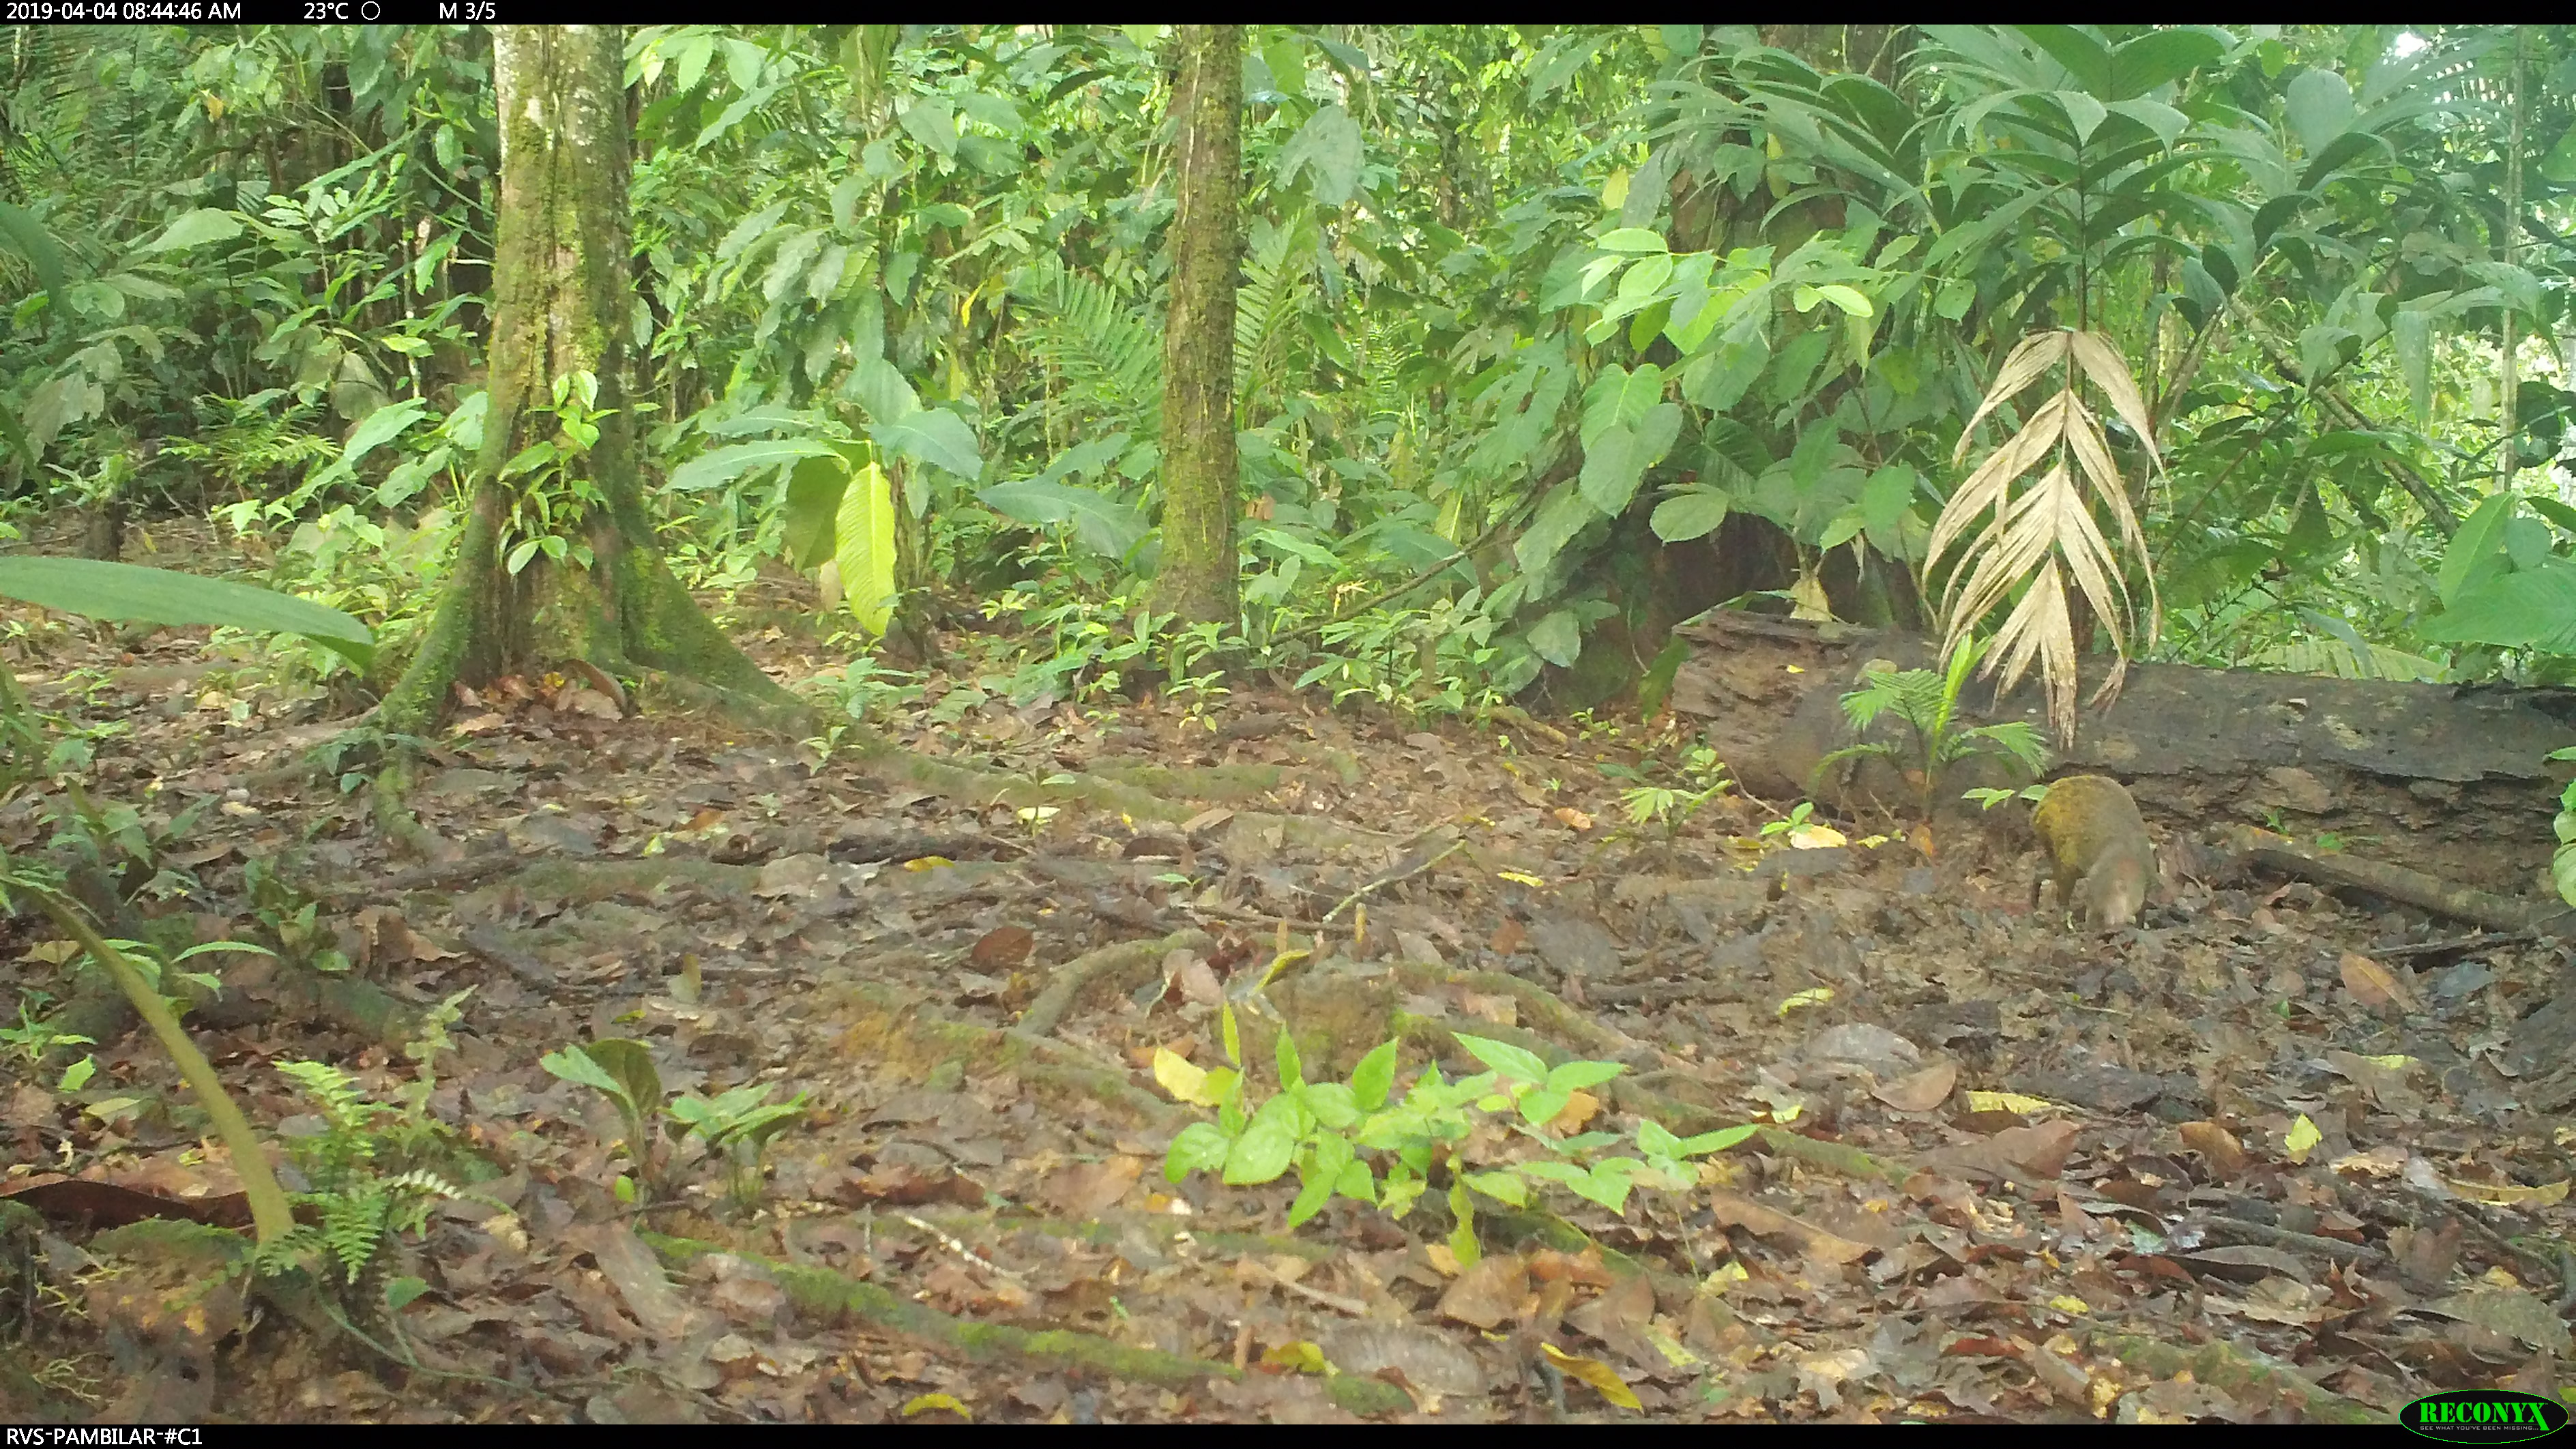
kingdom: Animalia
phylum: Chordata
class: Mammalia
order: Rodentia
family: Dasyproctidae
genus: Dasyprocta
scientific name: Dasyprocta punctata
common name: Central american agouti
